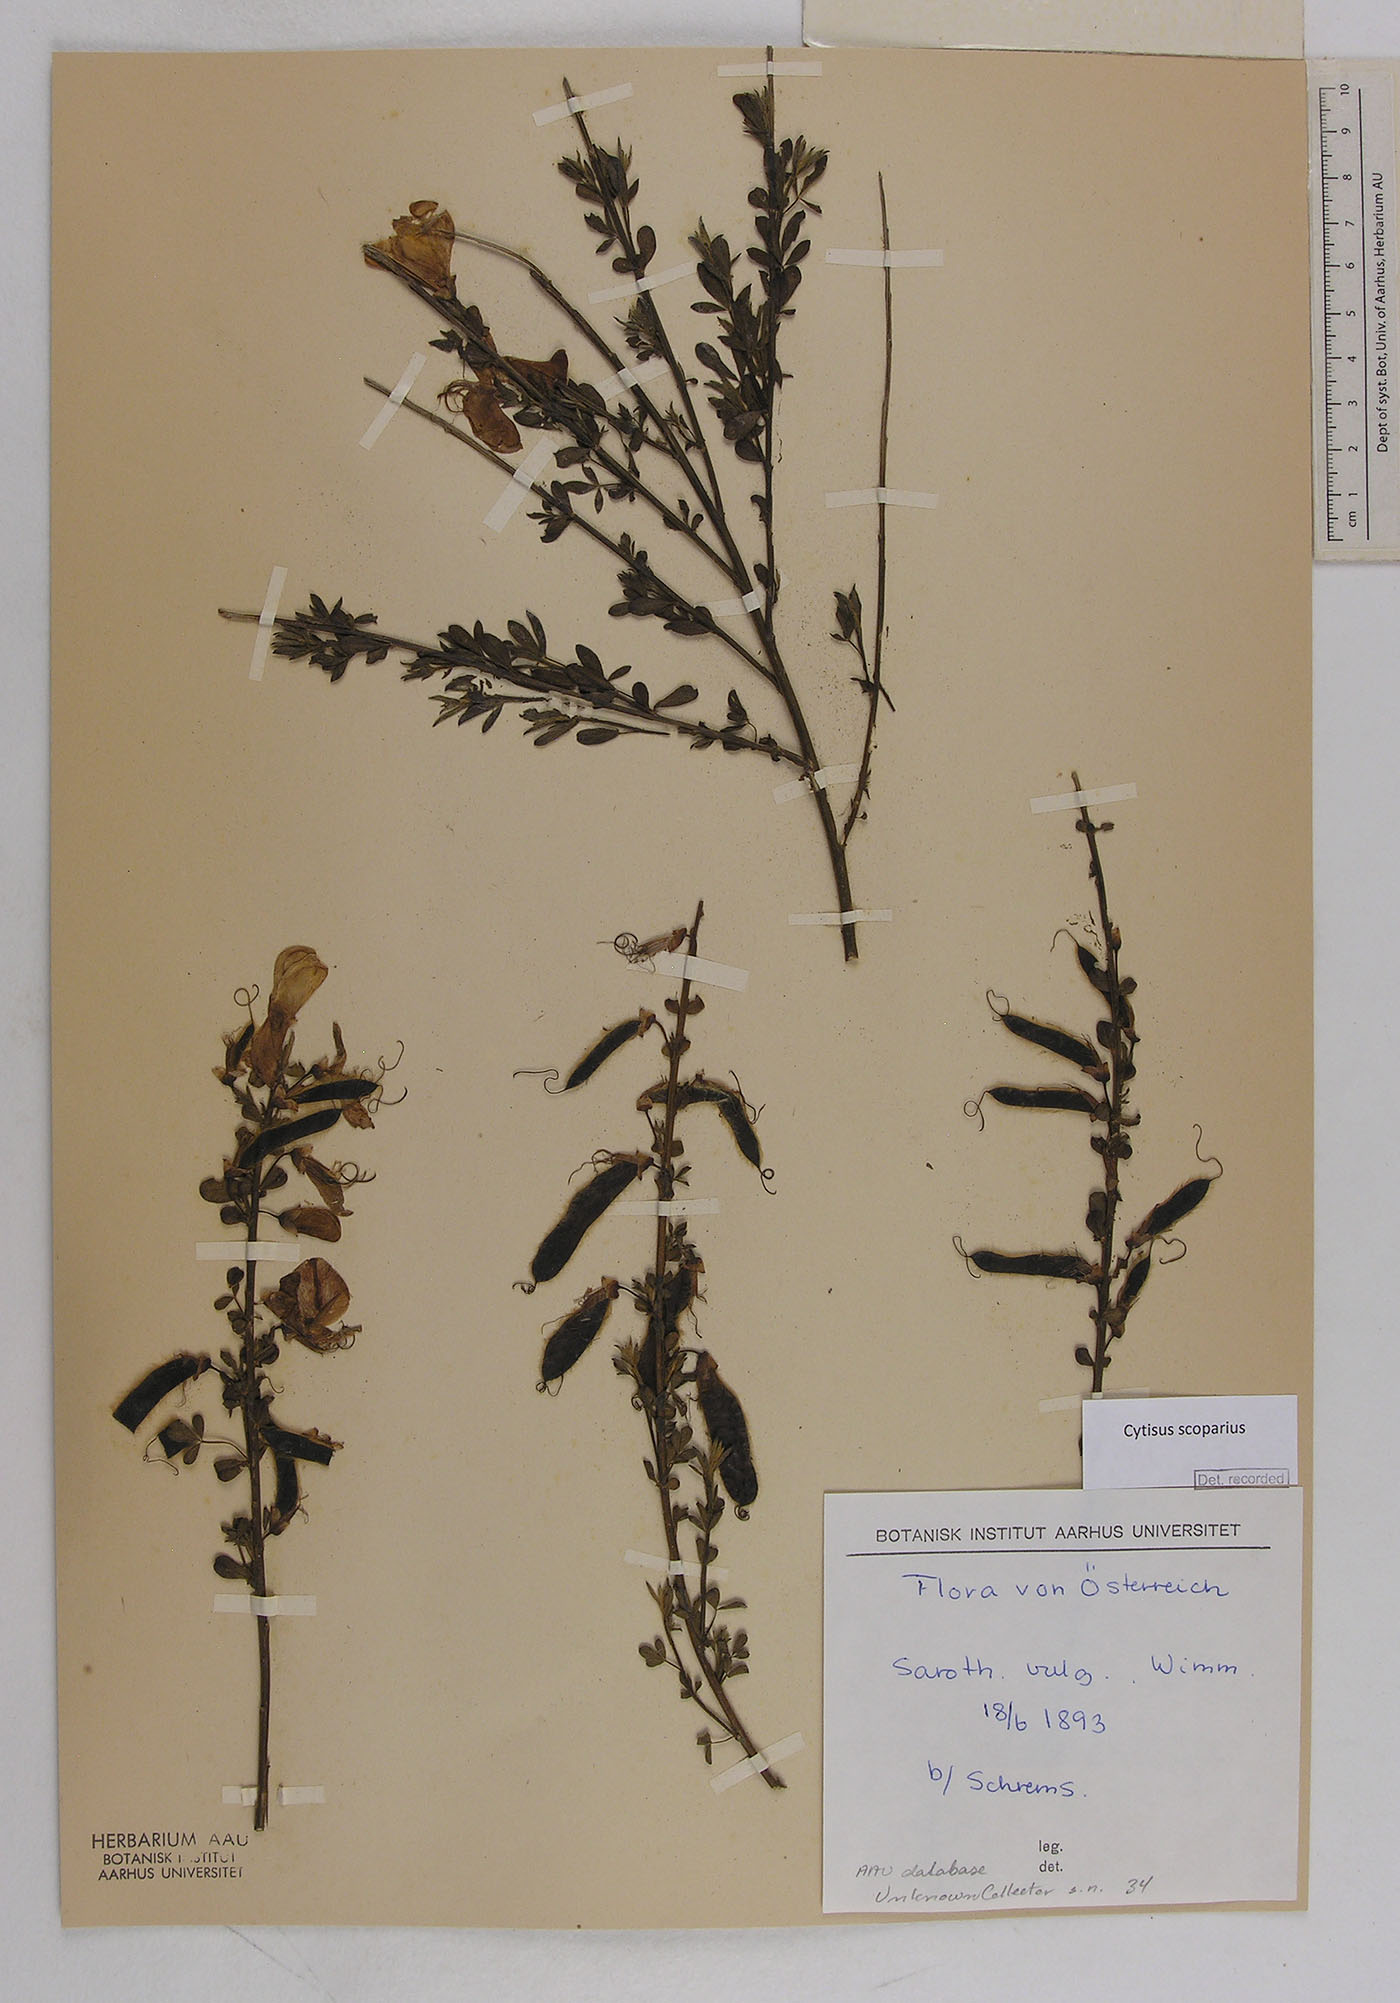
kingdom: Plantae
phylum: Tracheophyta
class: Magnoliopsida
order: Fabales
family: Fabaceae
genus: Cytisus
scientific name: Cytisus scoparius
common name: Scotch broom
